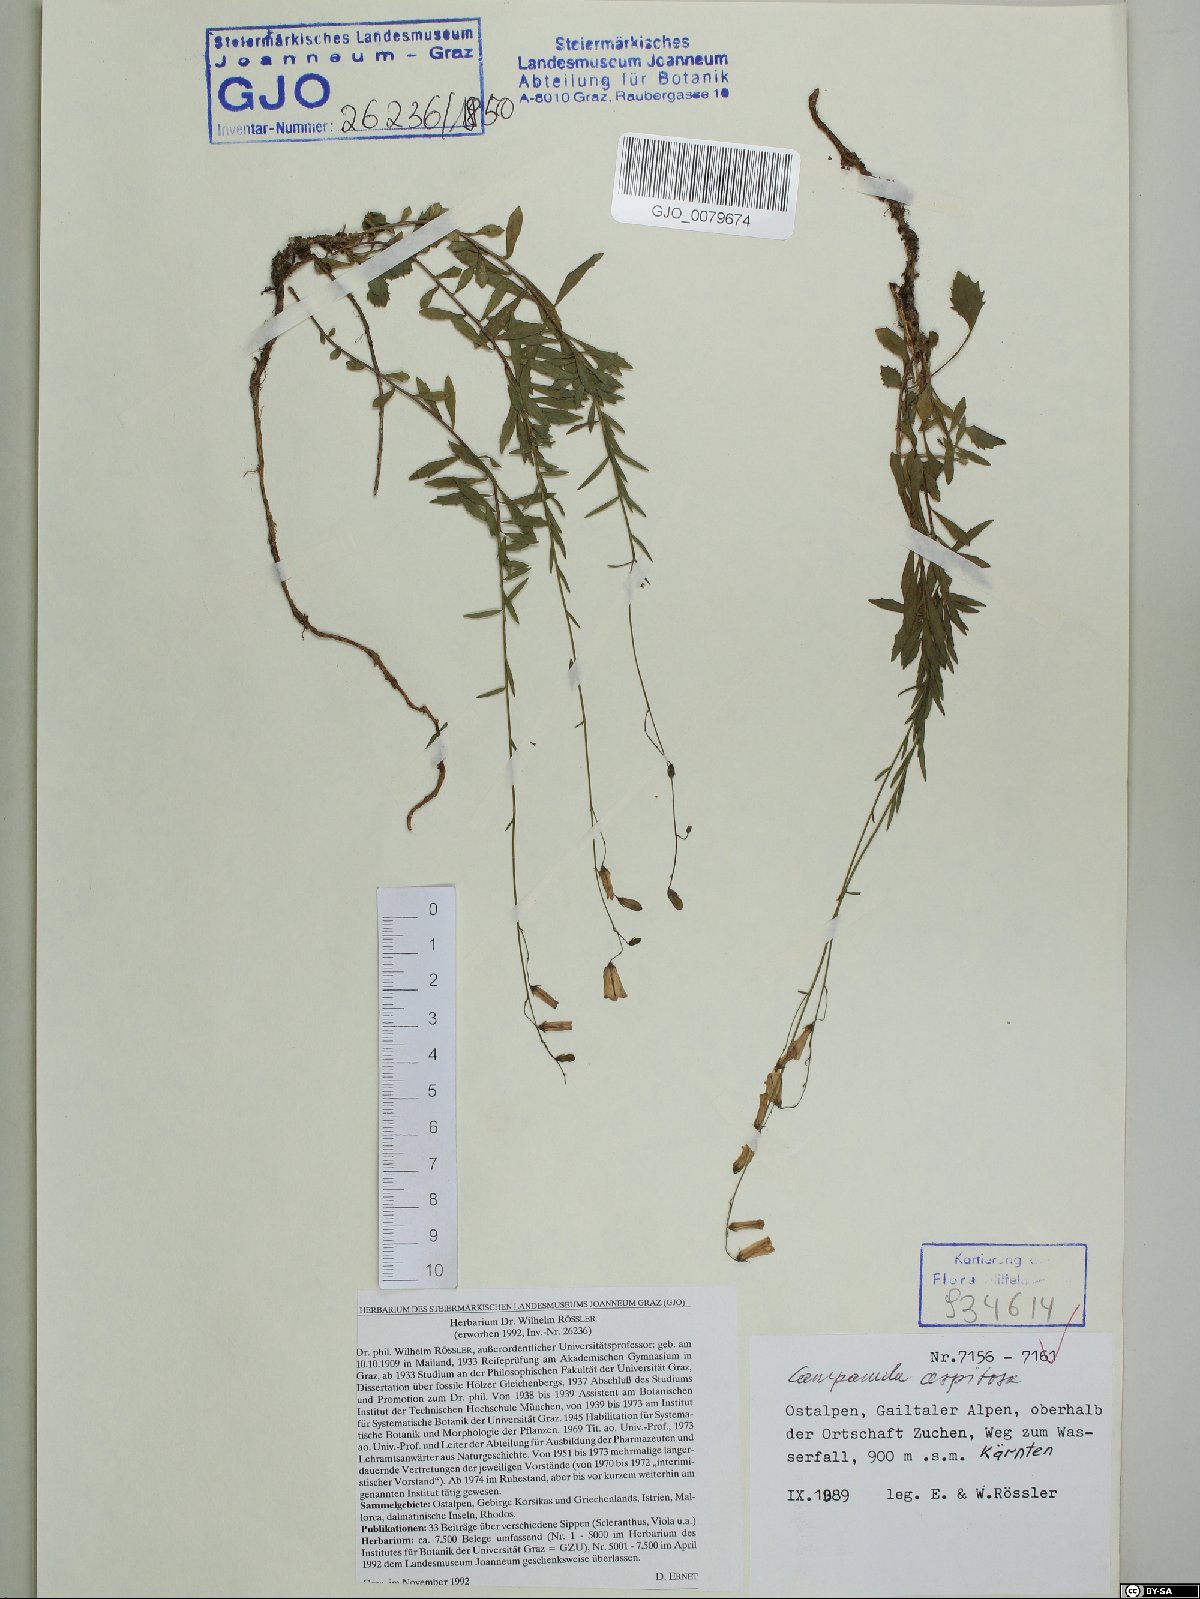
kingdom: Plantae
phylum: Tracheophyta
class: Magnoliopsida
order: Asterales
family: Campanulaceae
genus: Campanula
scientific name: Campanula cespitosa
